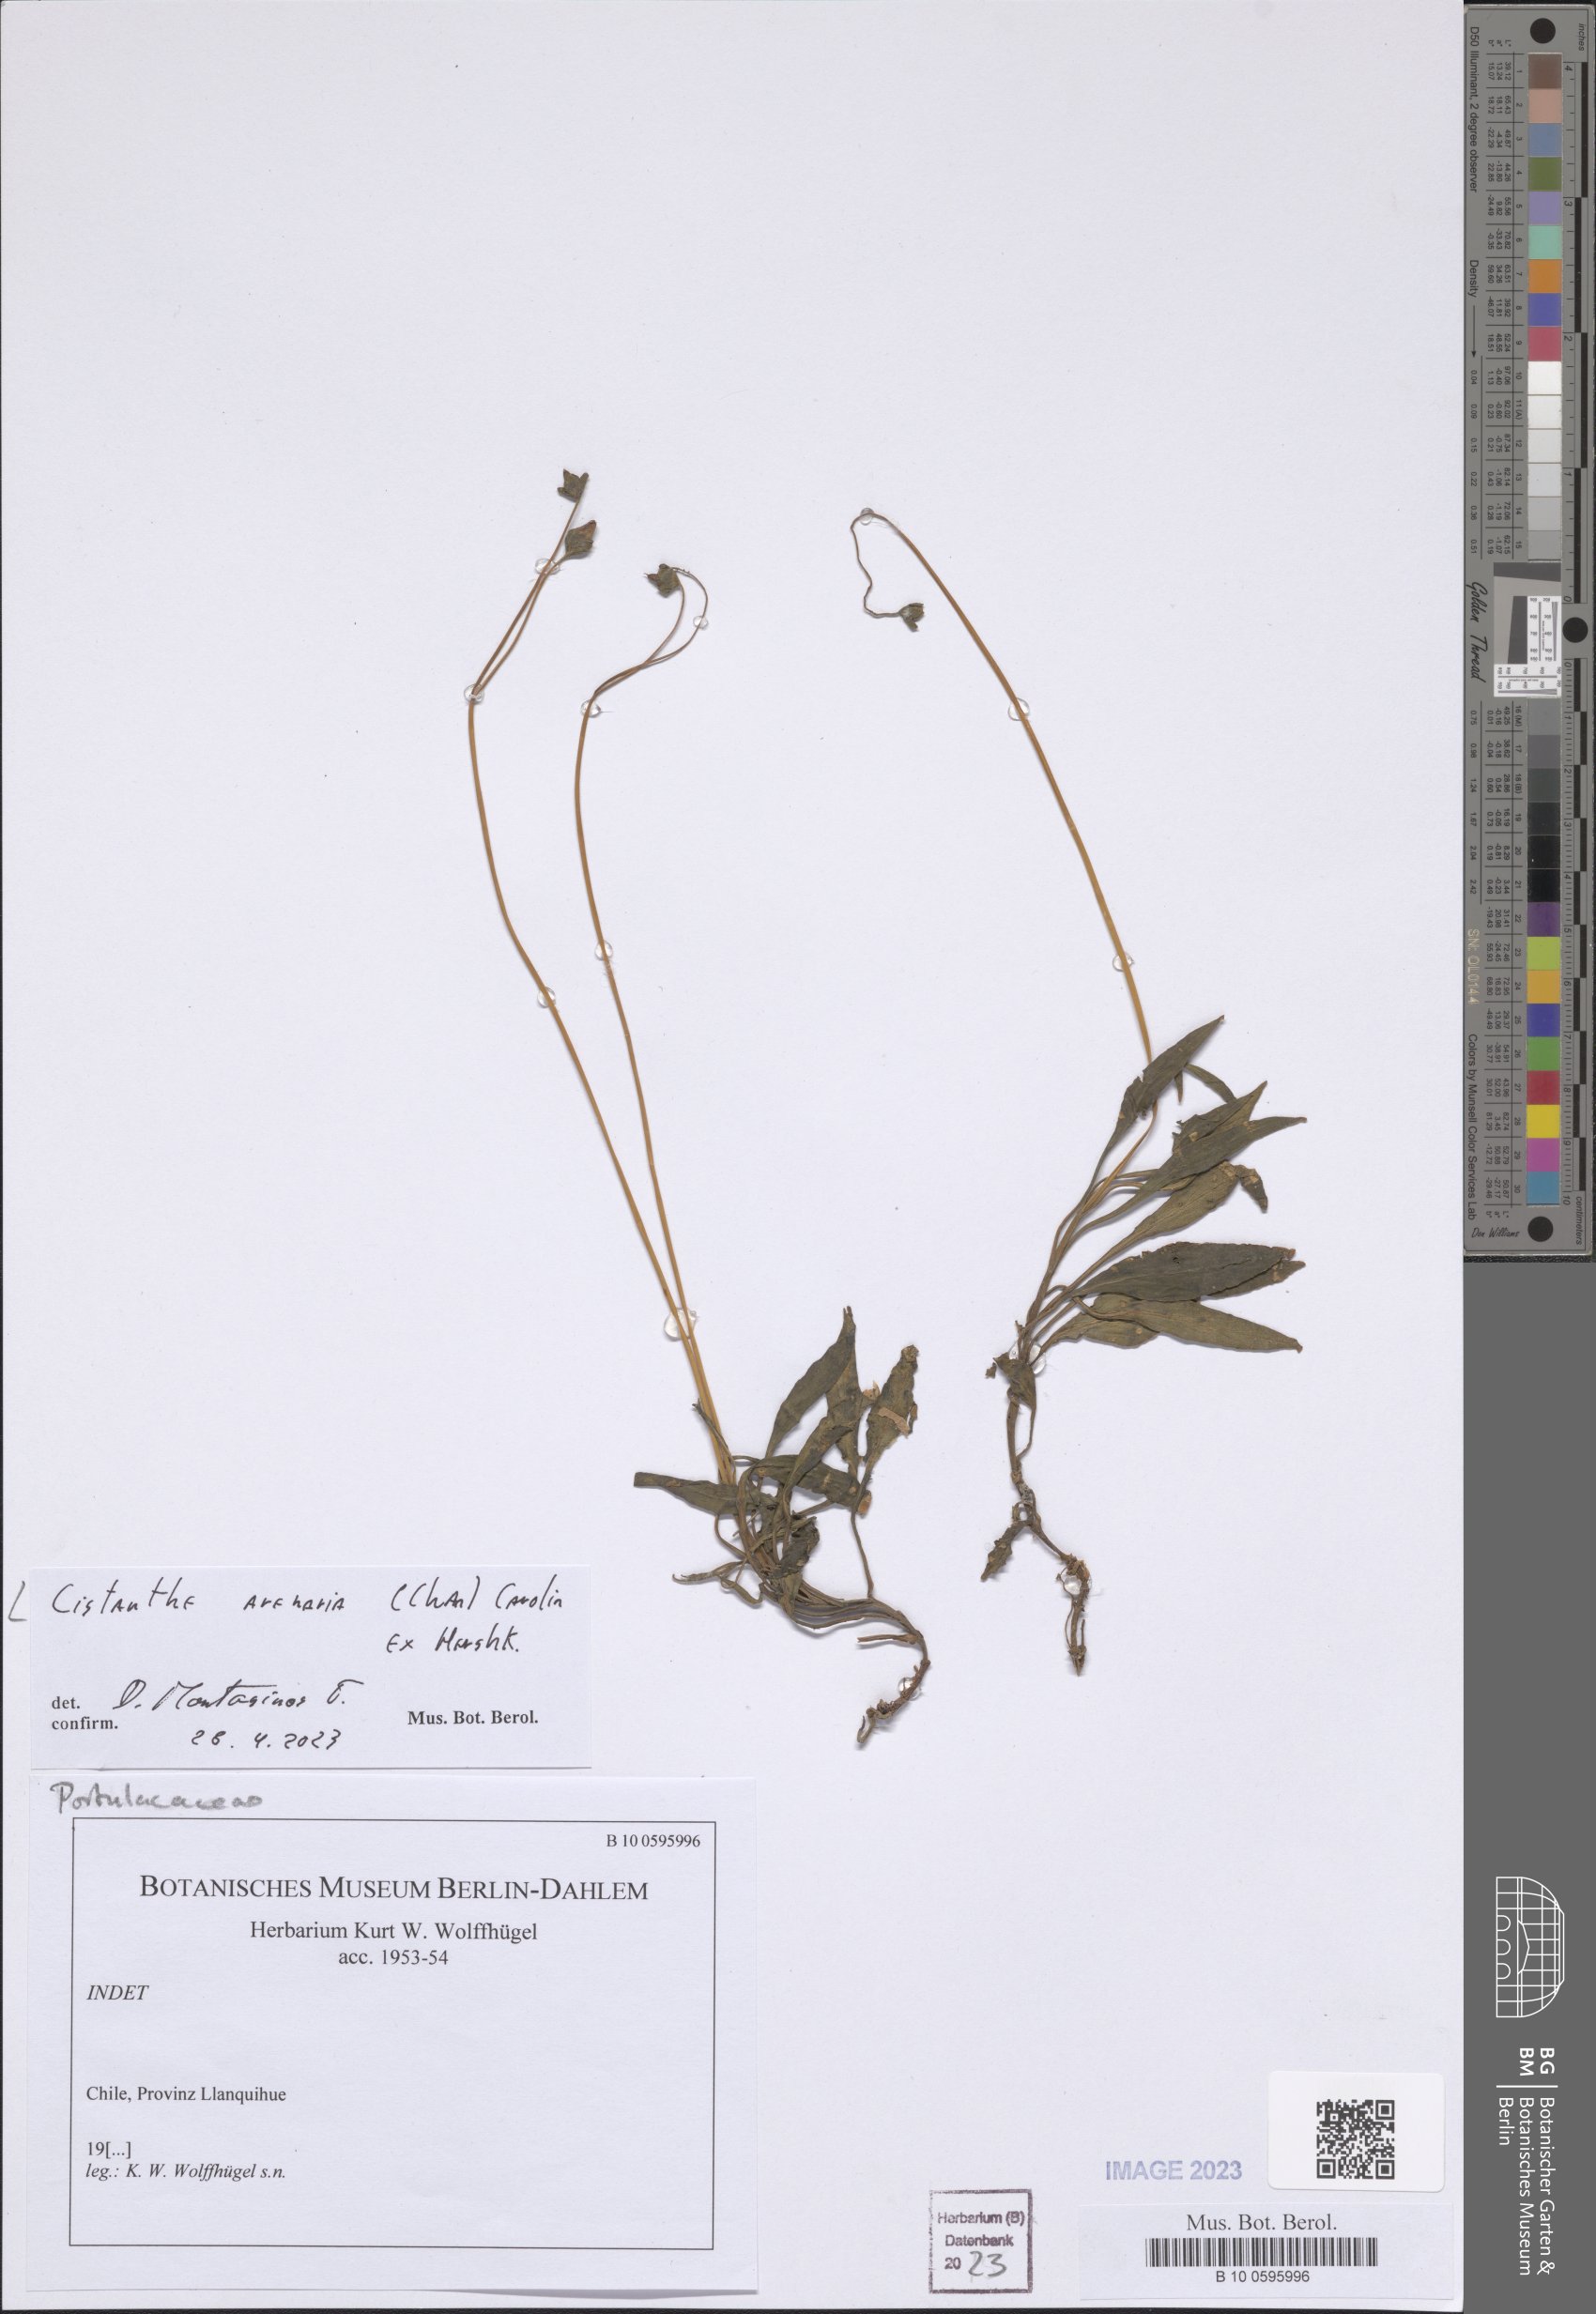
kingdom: Plantae
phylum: Tracheophyta
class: Magnoliopsida
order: Caryophyllales
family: Montiaceae
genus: Cistanthe
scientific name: Cistanthe arenaria
